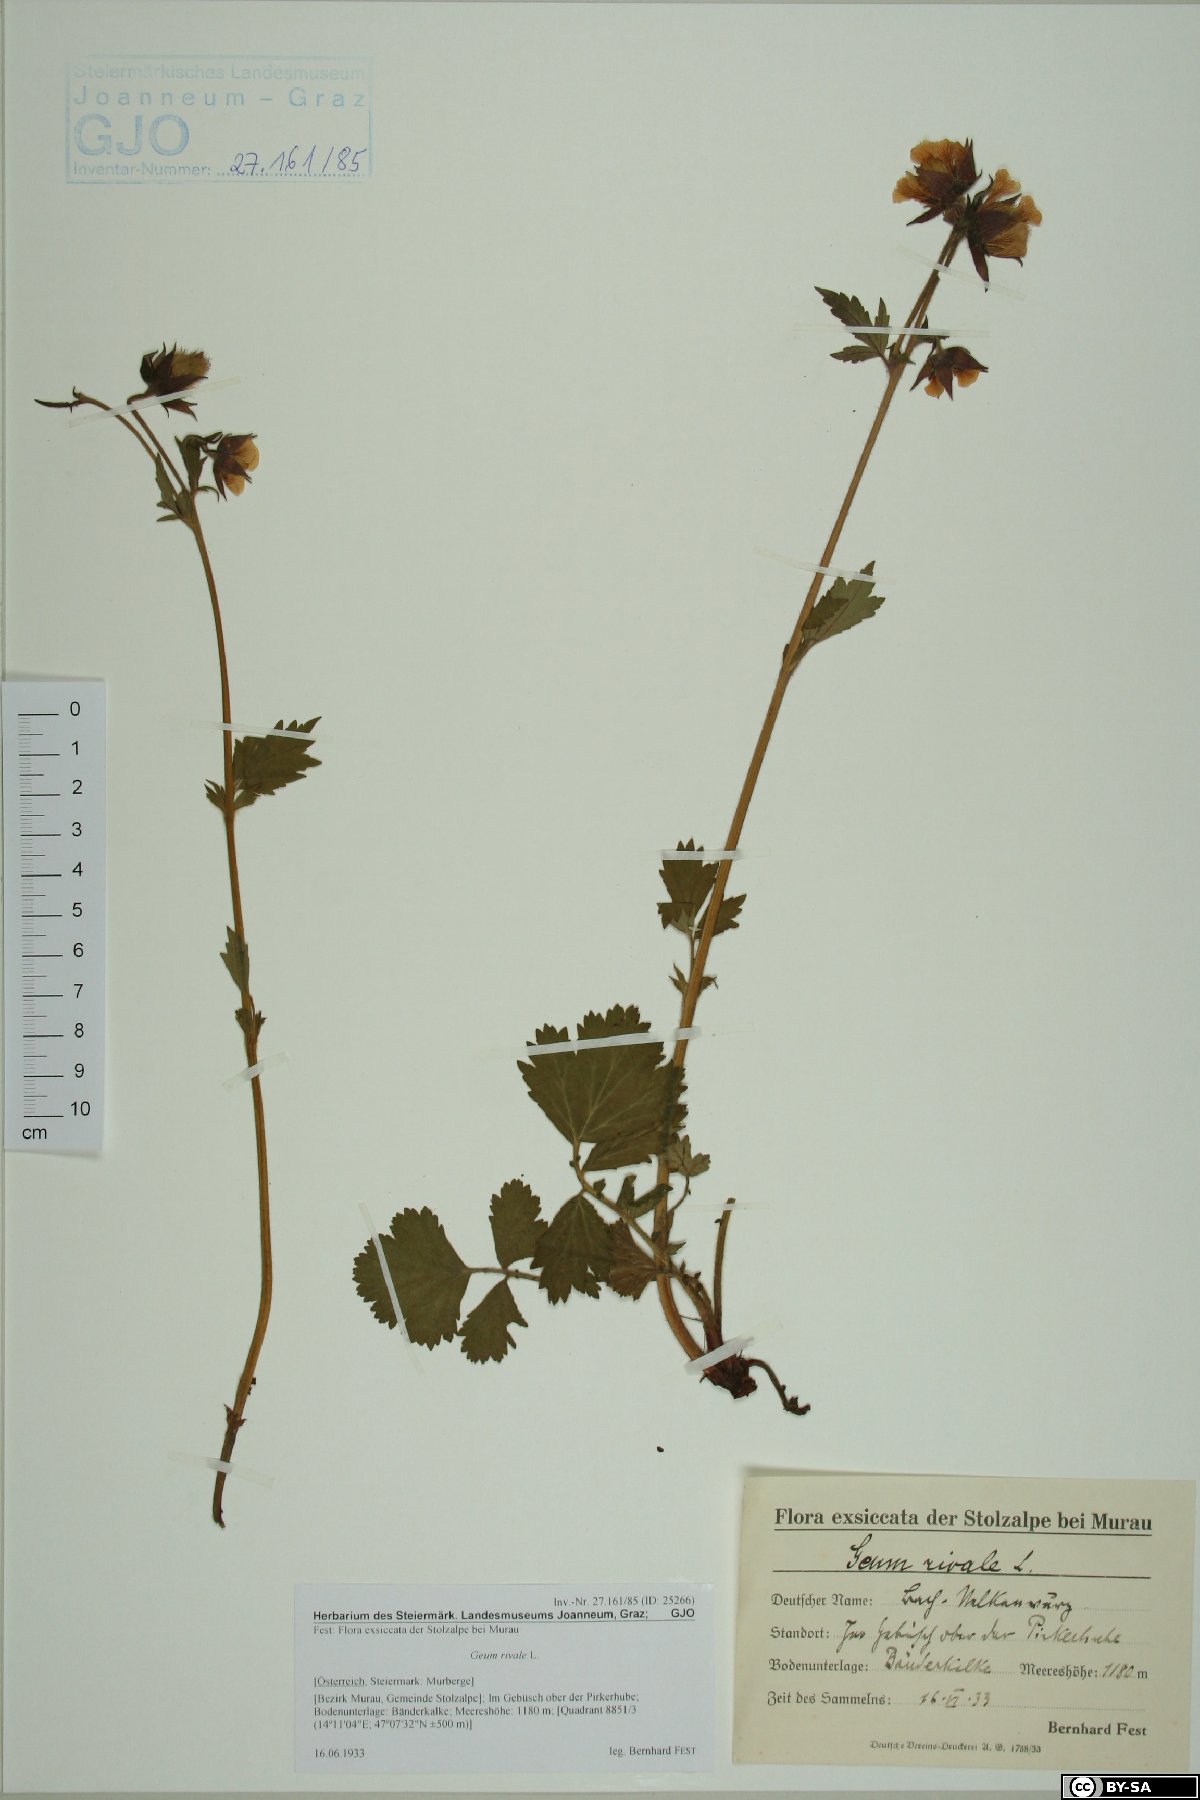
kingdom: Plantae
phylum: Tracheophyta
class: Magnoliopsida
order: Rosales
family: Rosaceae
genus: Geum
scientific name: Geum rivale
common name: Water avens
